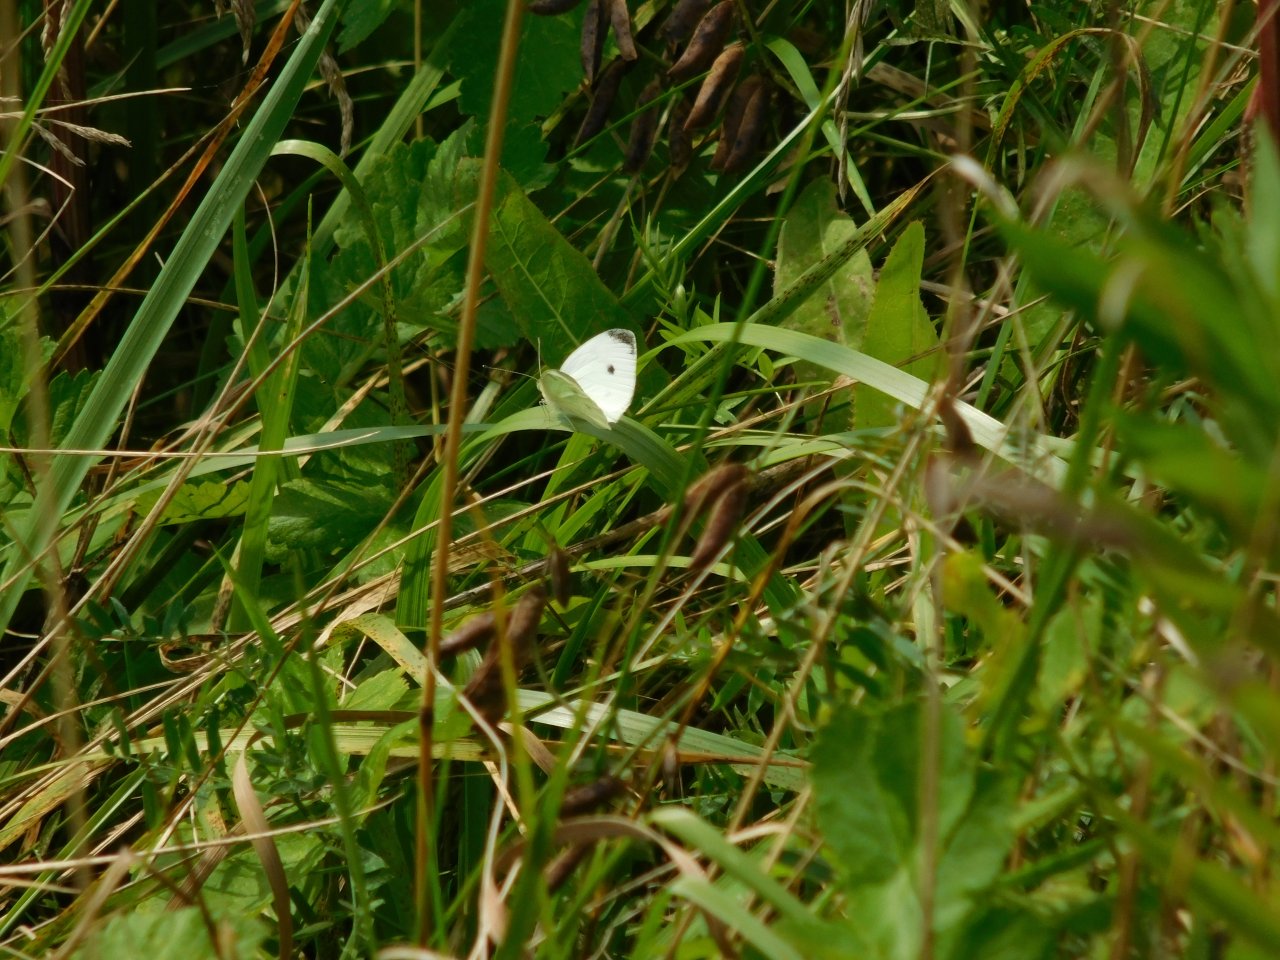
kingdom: Animalia
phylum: Arthropoda
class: Insecta
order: Lepidoptera
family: Pieridae
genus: Pieris
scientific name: Pieris rapae
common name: Cabbage White
